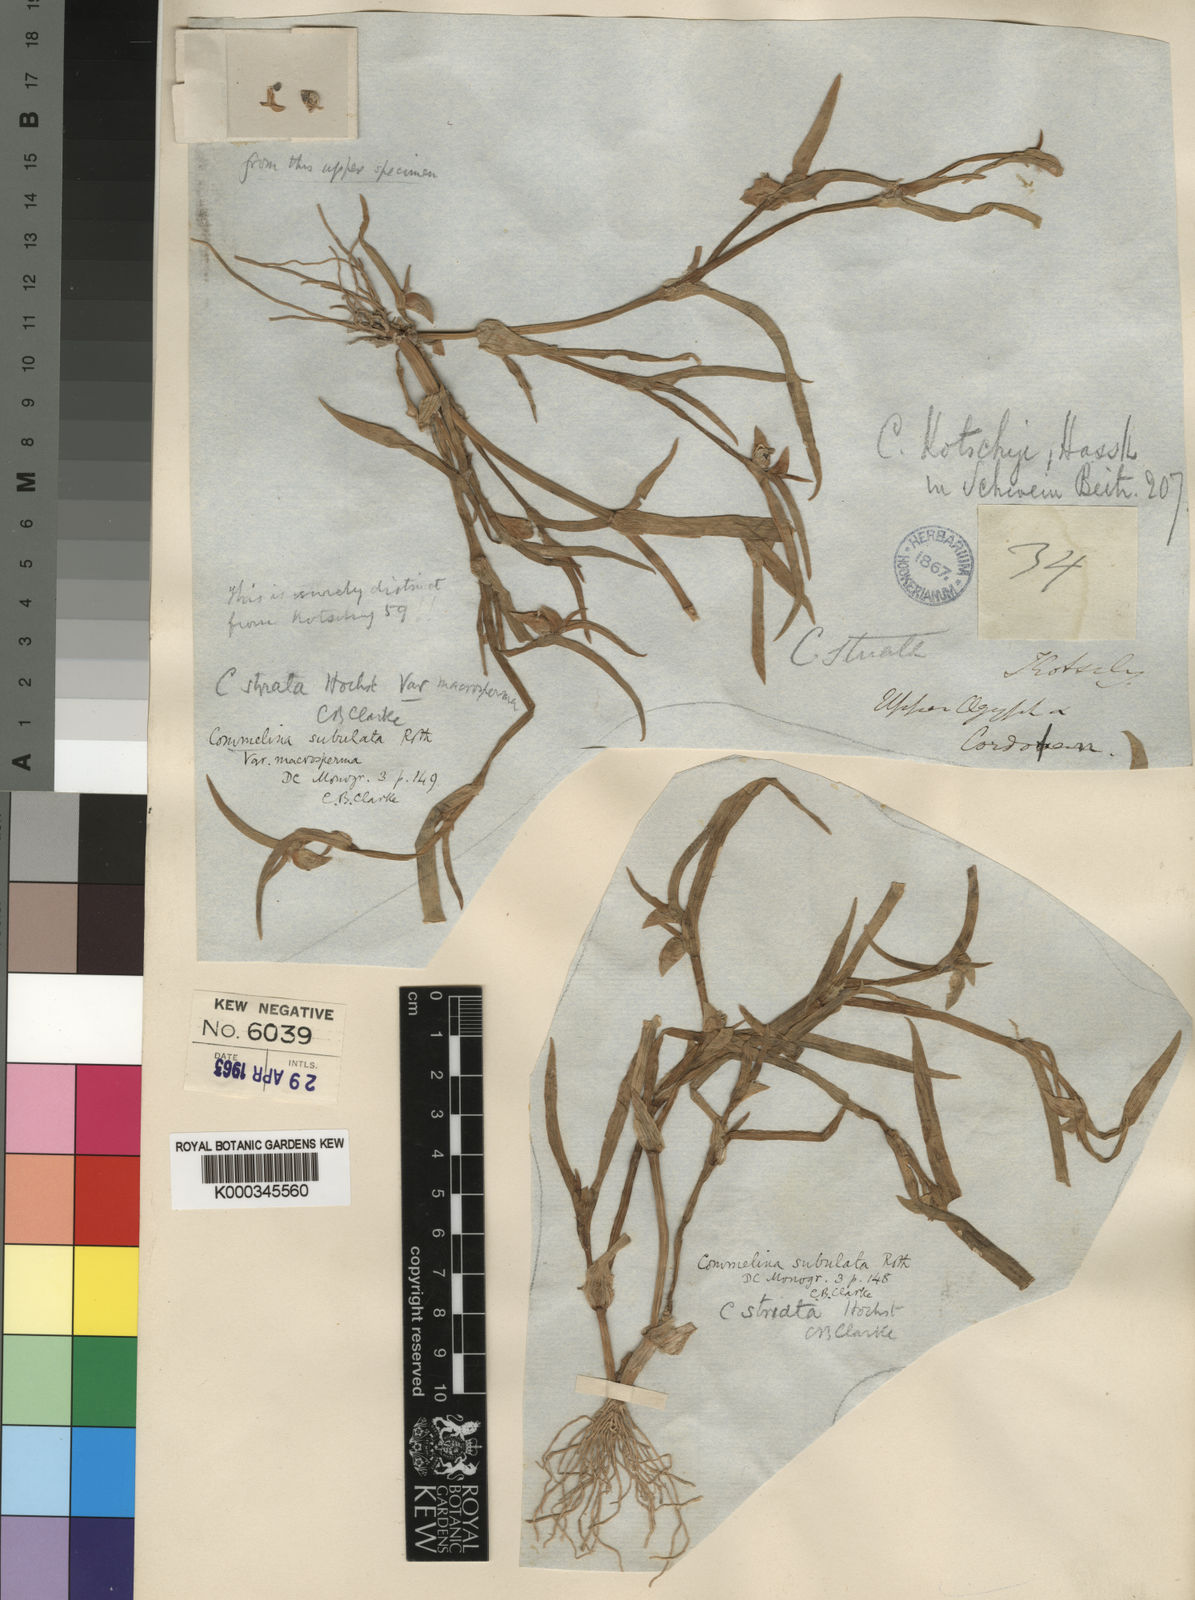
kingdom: Plantae
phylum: Tracheophyta
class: Liliopsida
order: Commelinales
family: Commelinaceae
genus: Commelina
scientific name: Commelina subulata
